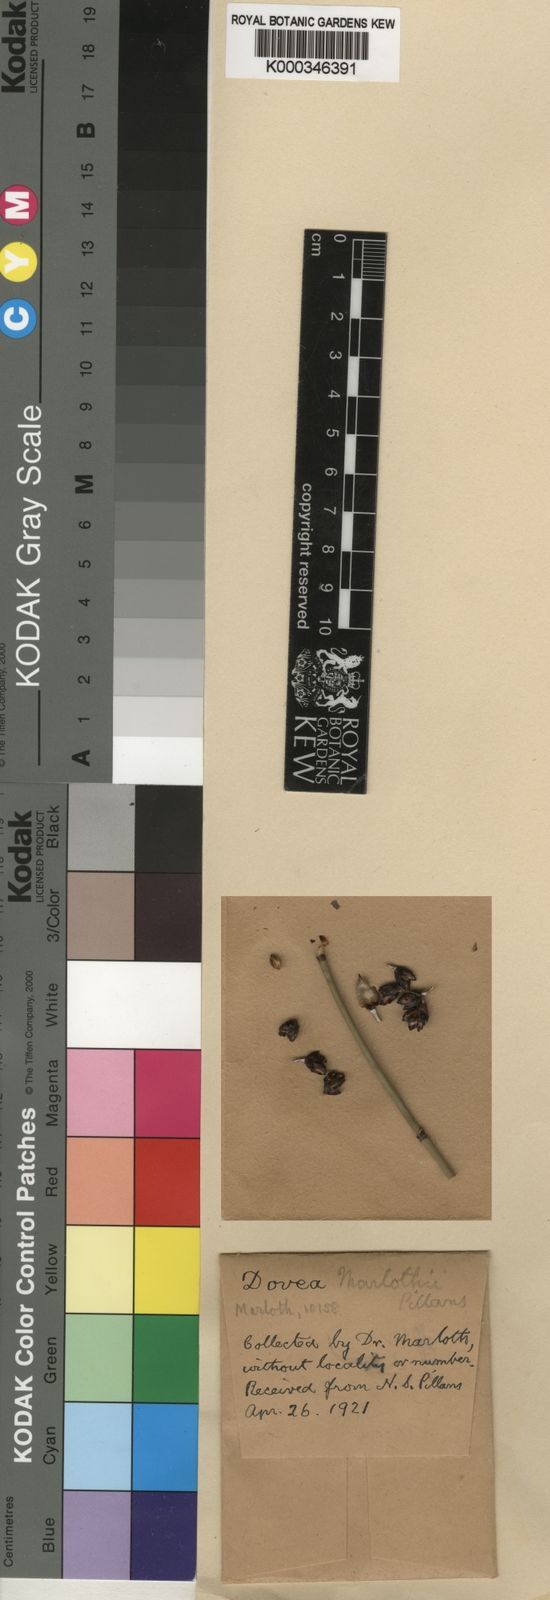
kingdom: Plantae
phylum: Tracheophyta
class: Liliopsida
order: Poales
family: Restionaceae
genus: Elegia
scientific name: Elegia marlothii
